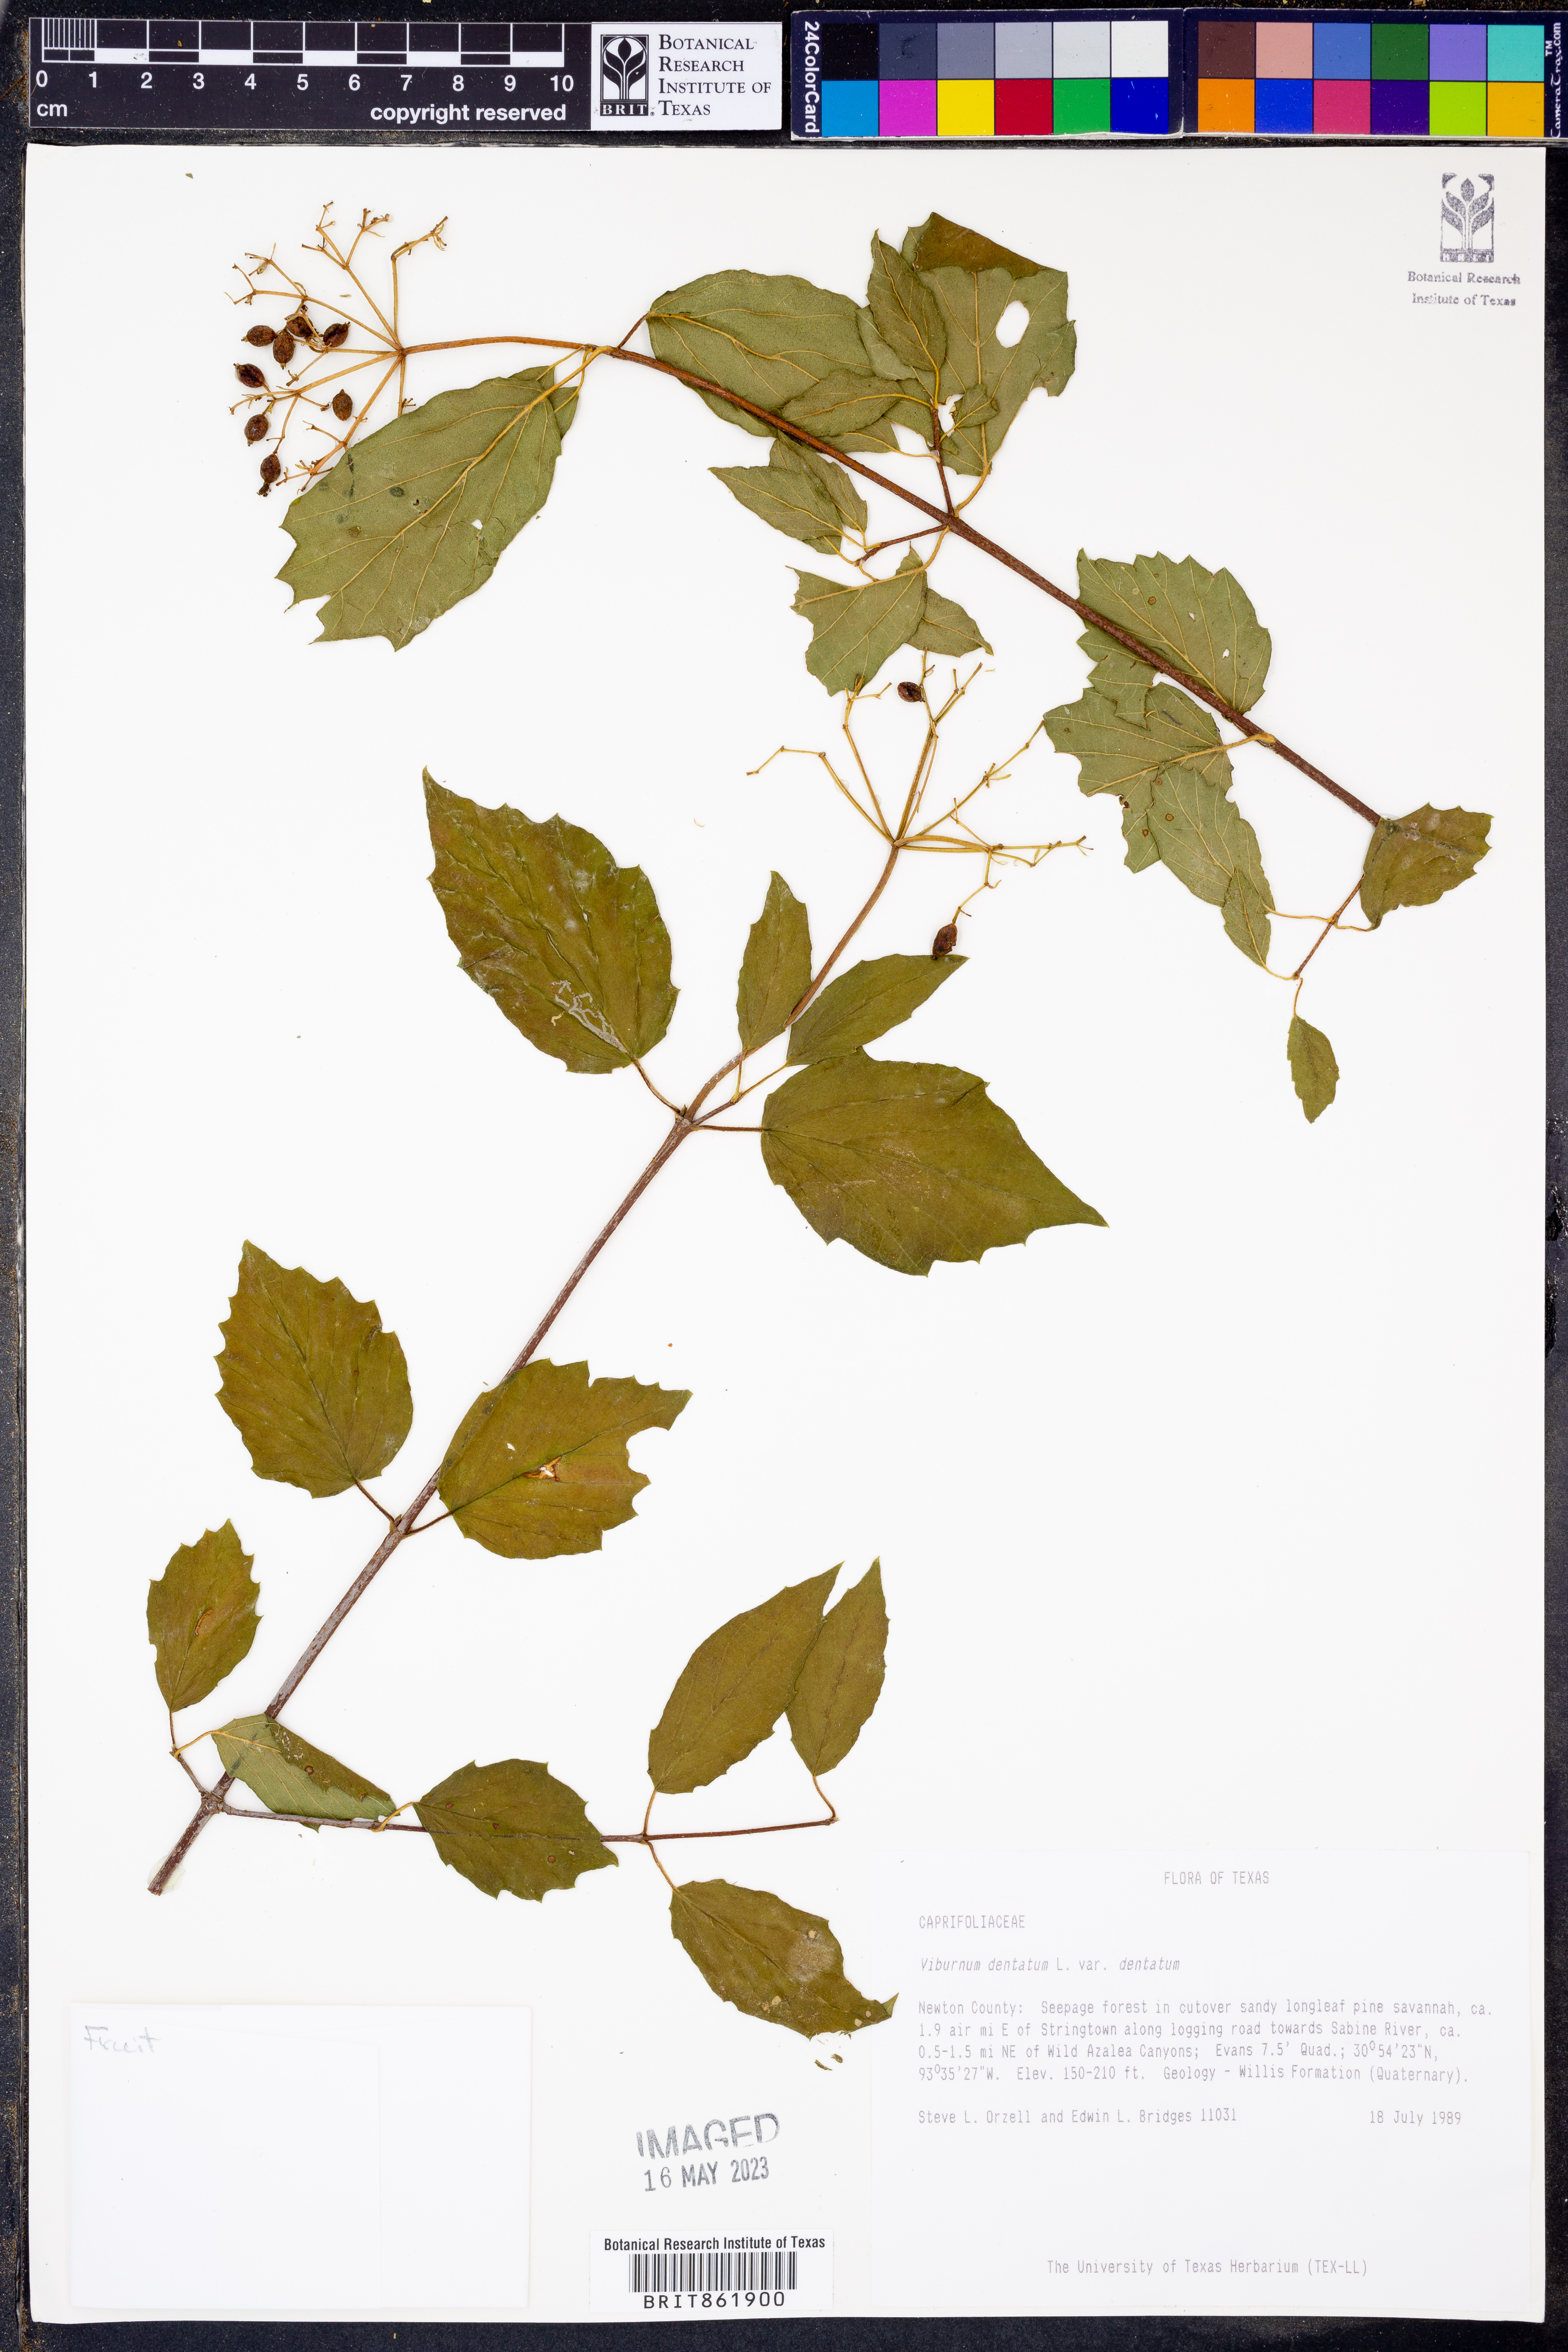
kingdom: Plantae
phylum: Tracheophyta
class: Magnoliopsida
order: Dipsacales
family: Viburnaceae
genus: Viburnum
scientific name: Viburnum dentatum
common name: Arrow-wood
